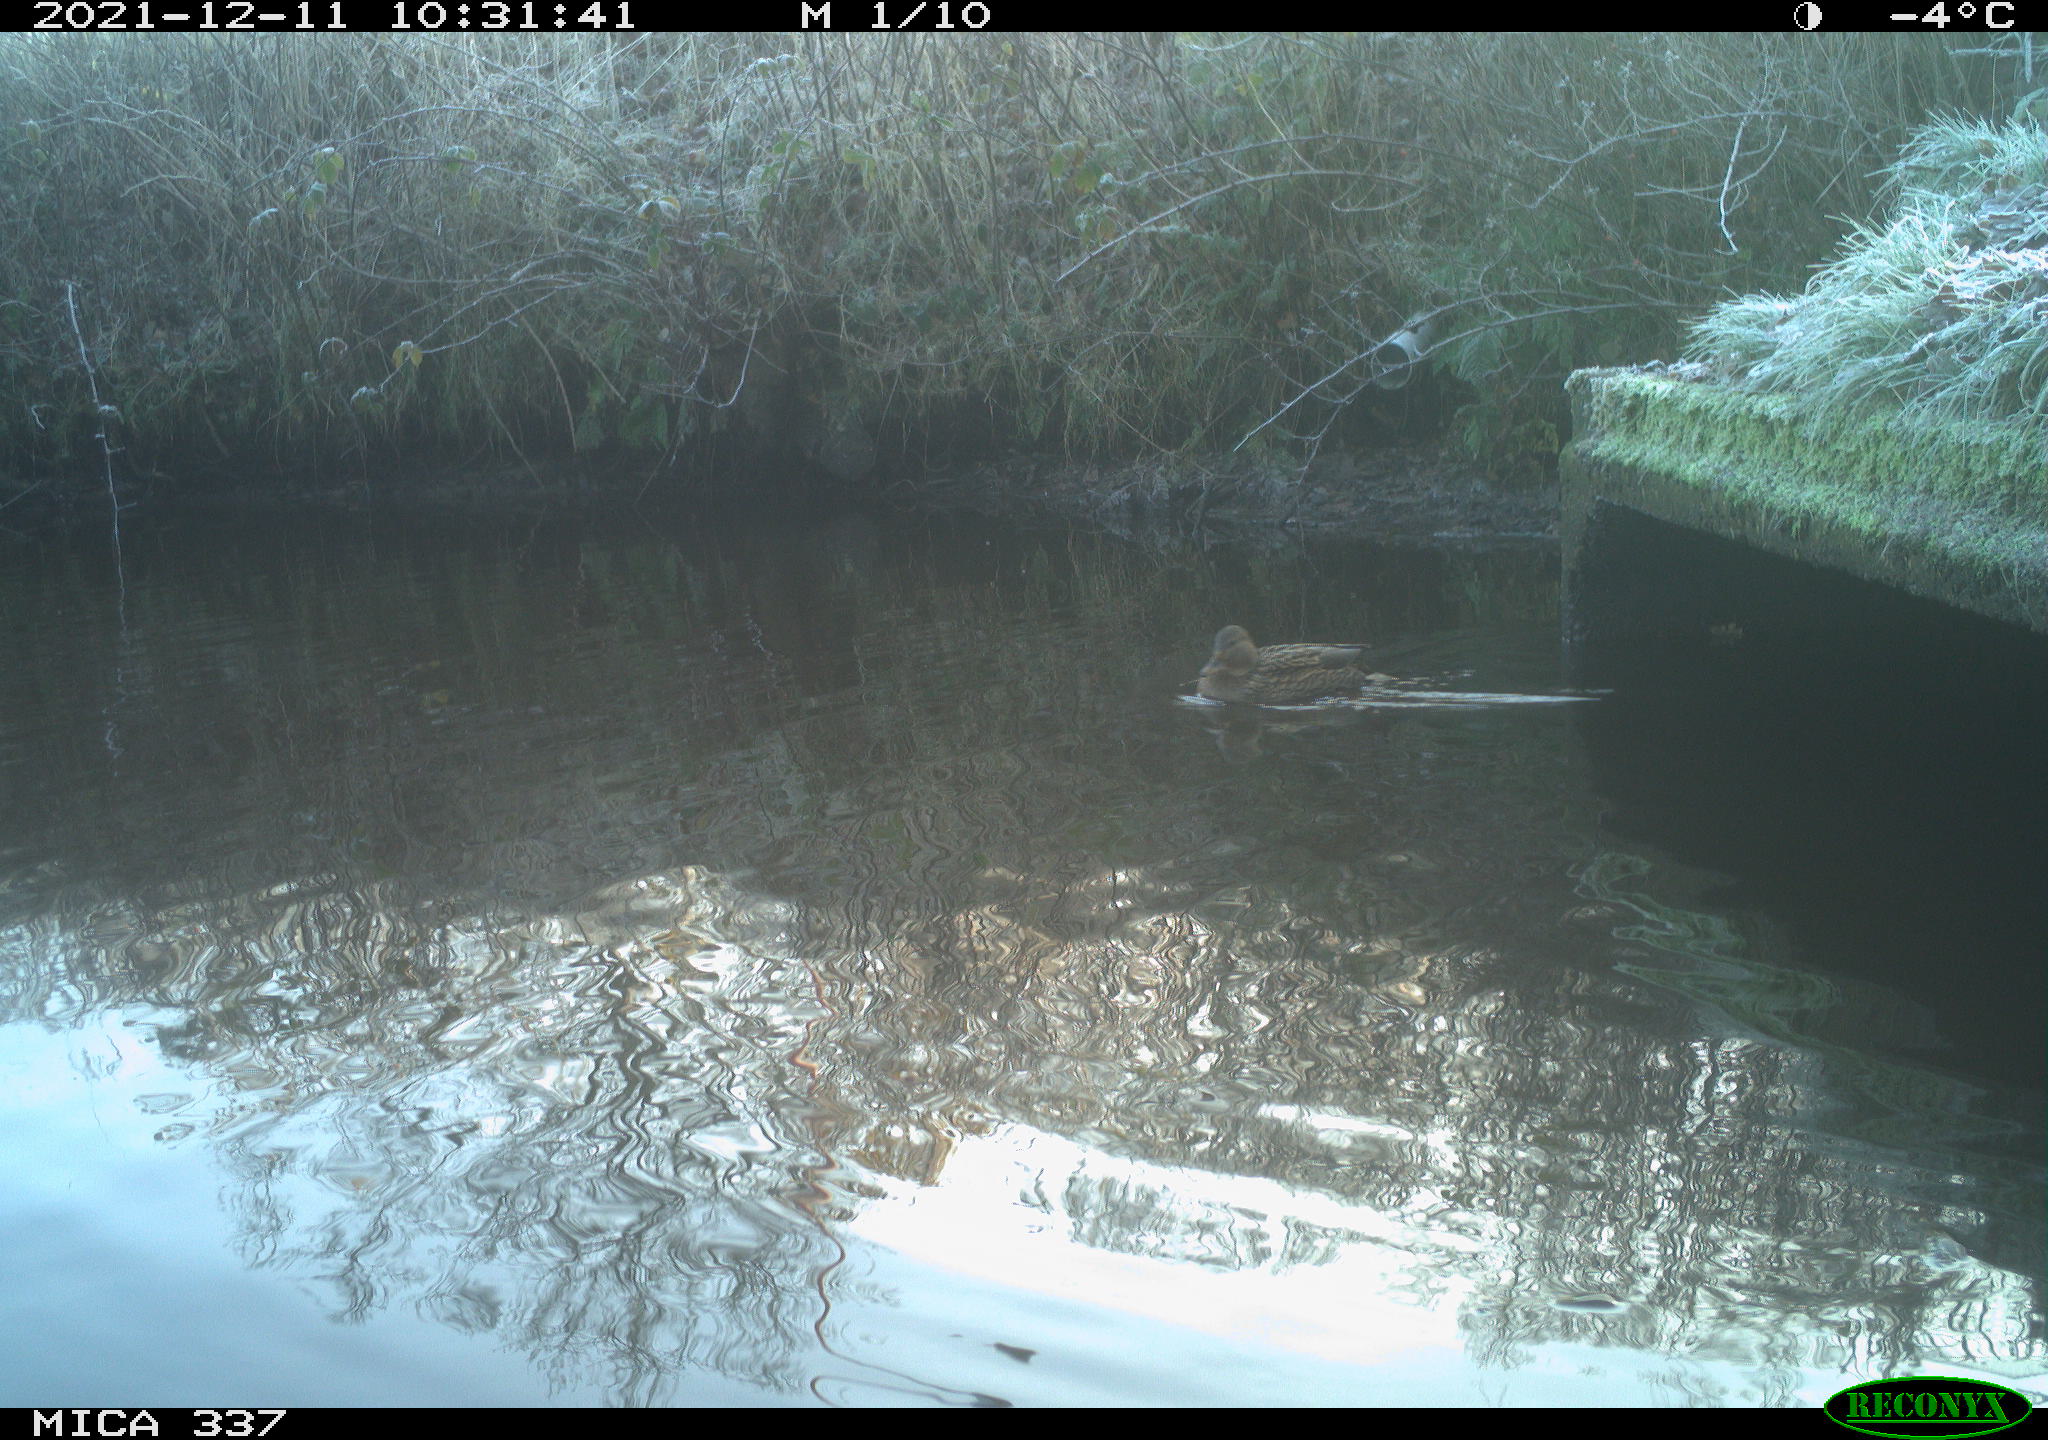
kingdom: Animalia
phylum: Chordata
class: Aves
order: Anseriformes
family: Anatidae
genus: Anas
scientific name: Anas platyrhynchos
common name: Mallard
